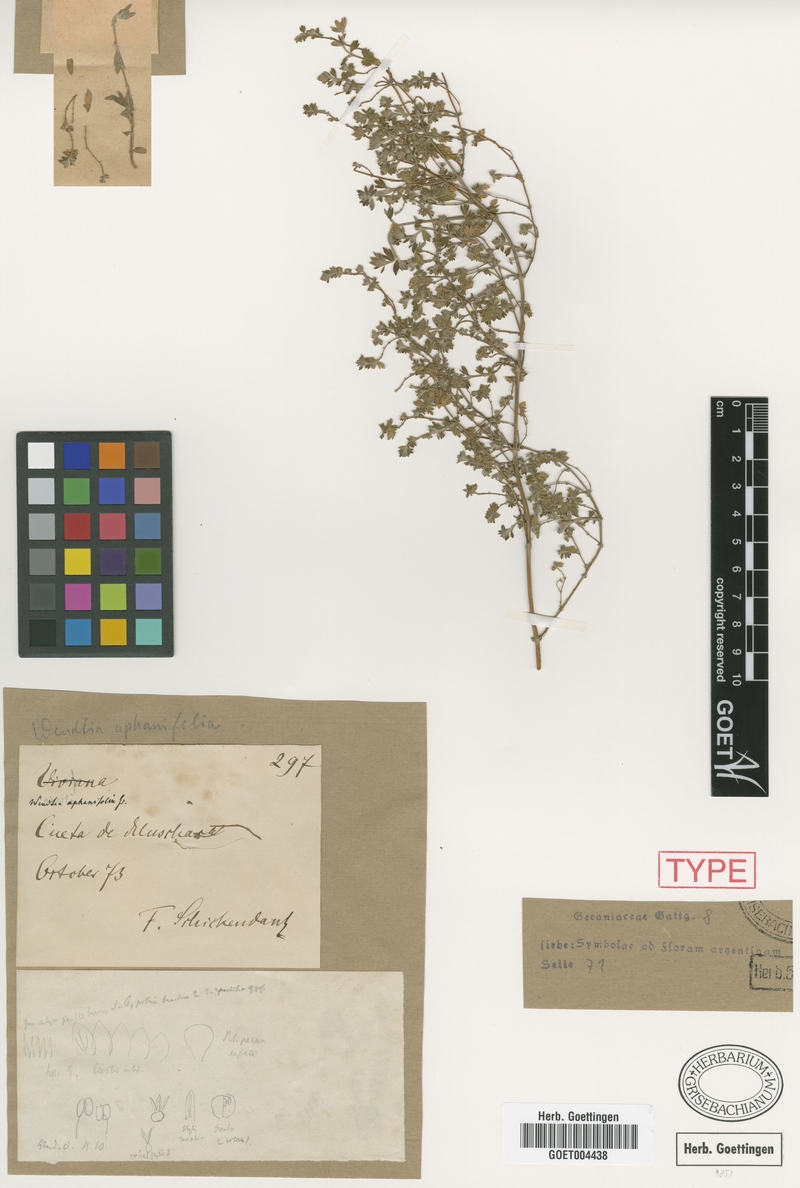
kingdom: Plantae
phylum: Tracheophyta
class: Magnoliopsida
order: Geraniales
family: Vivianiaceae
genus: Wendtia
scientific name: Wendtia aphanifolia
